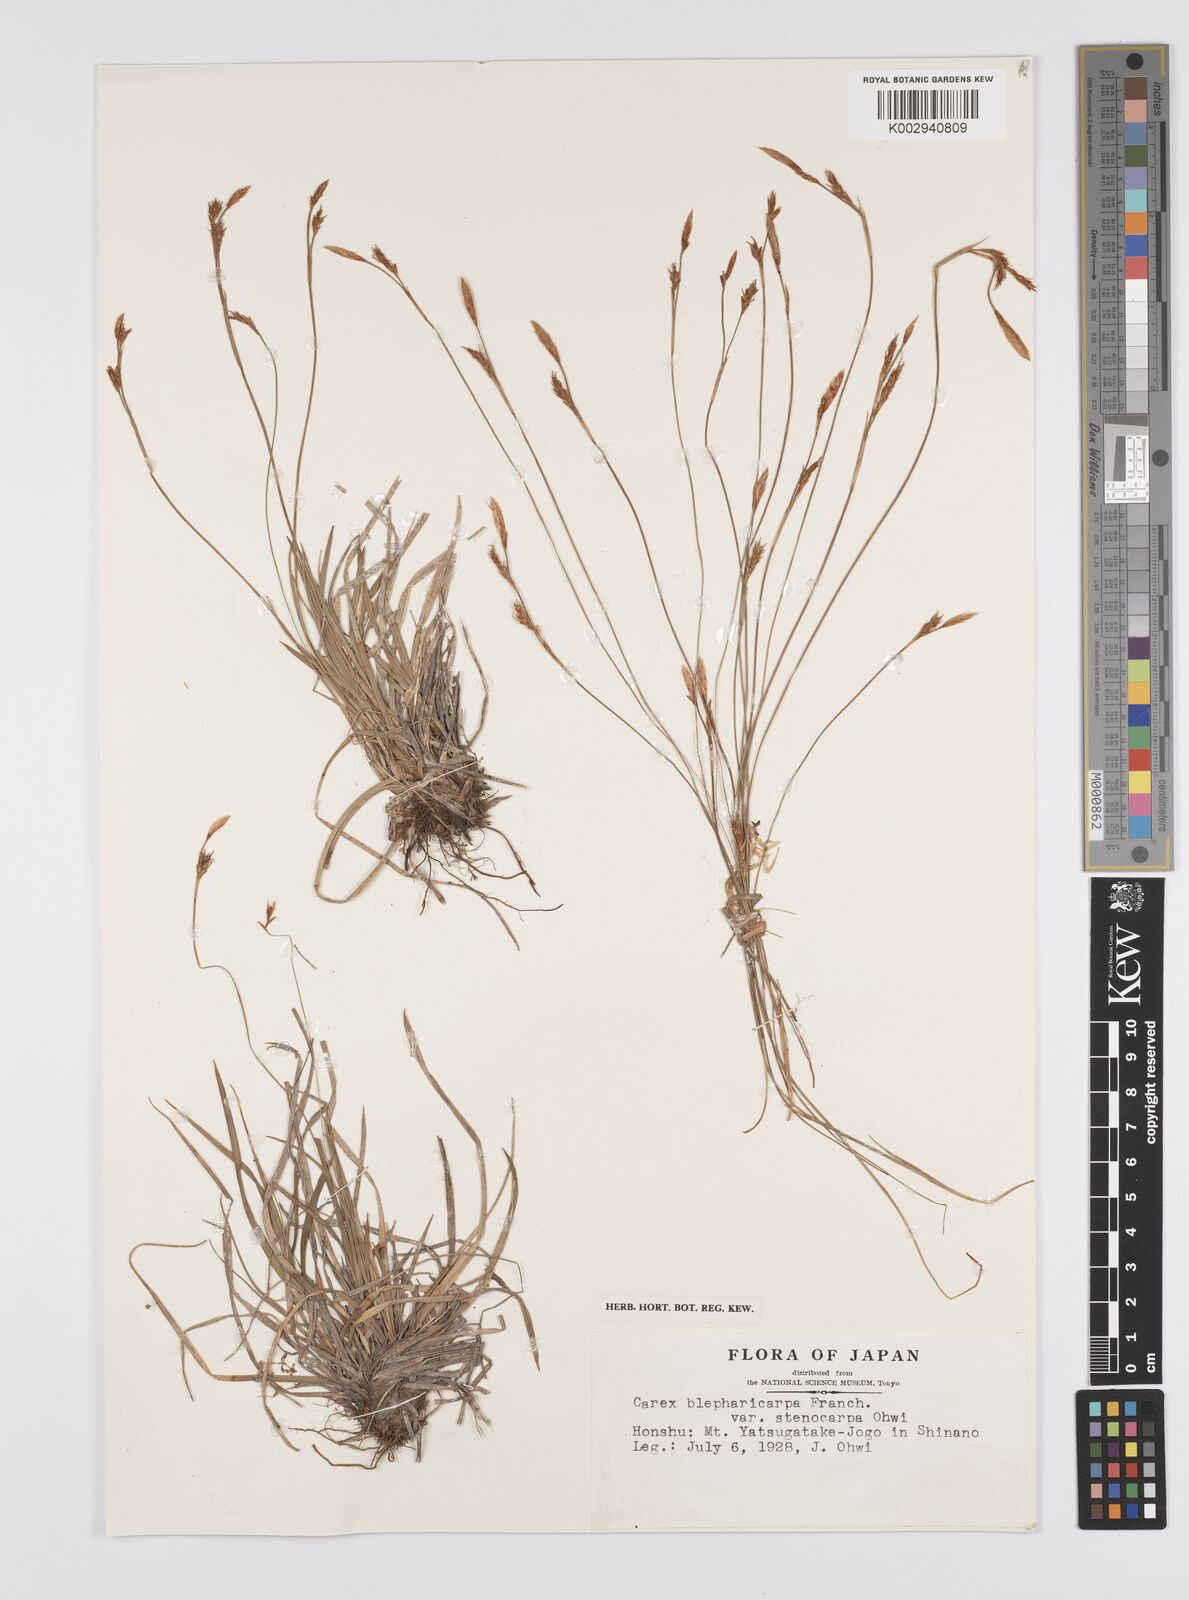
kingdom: Plantae
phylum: Tracheophyta
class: Liliopsida
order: Poales
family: Cyperaceae
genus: Carex
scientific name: Carex blepharicarpa
